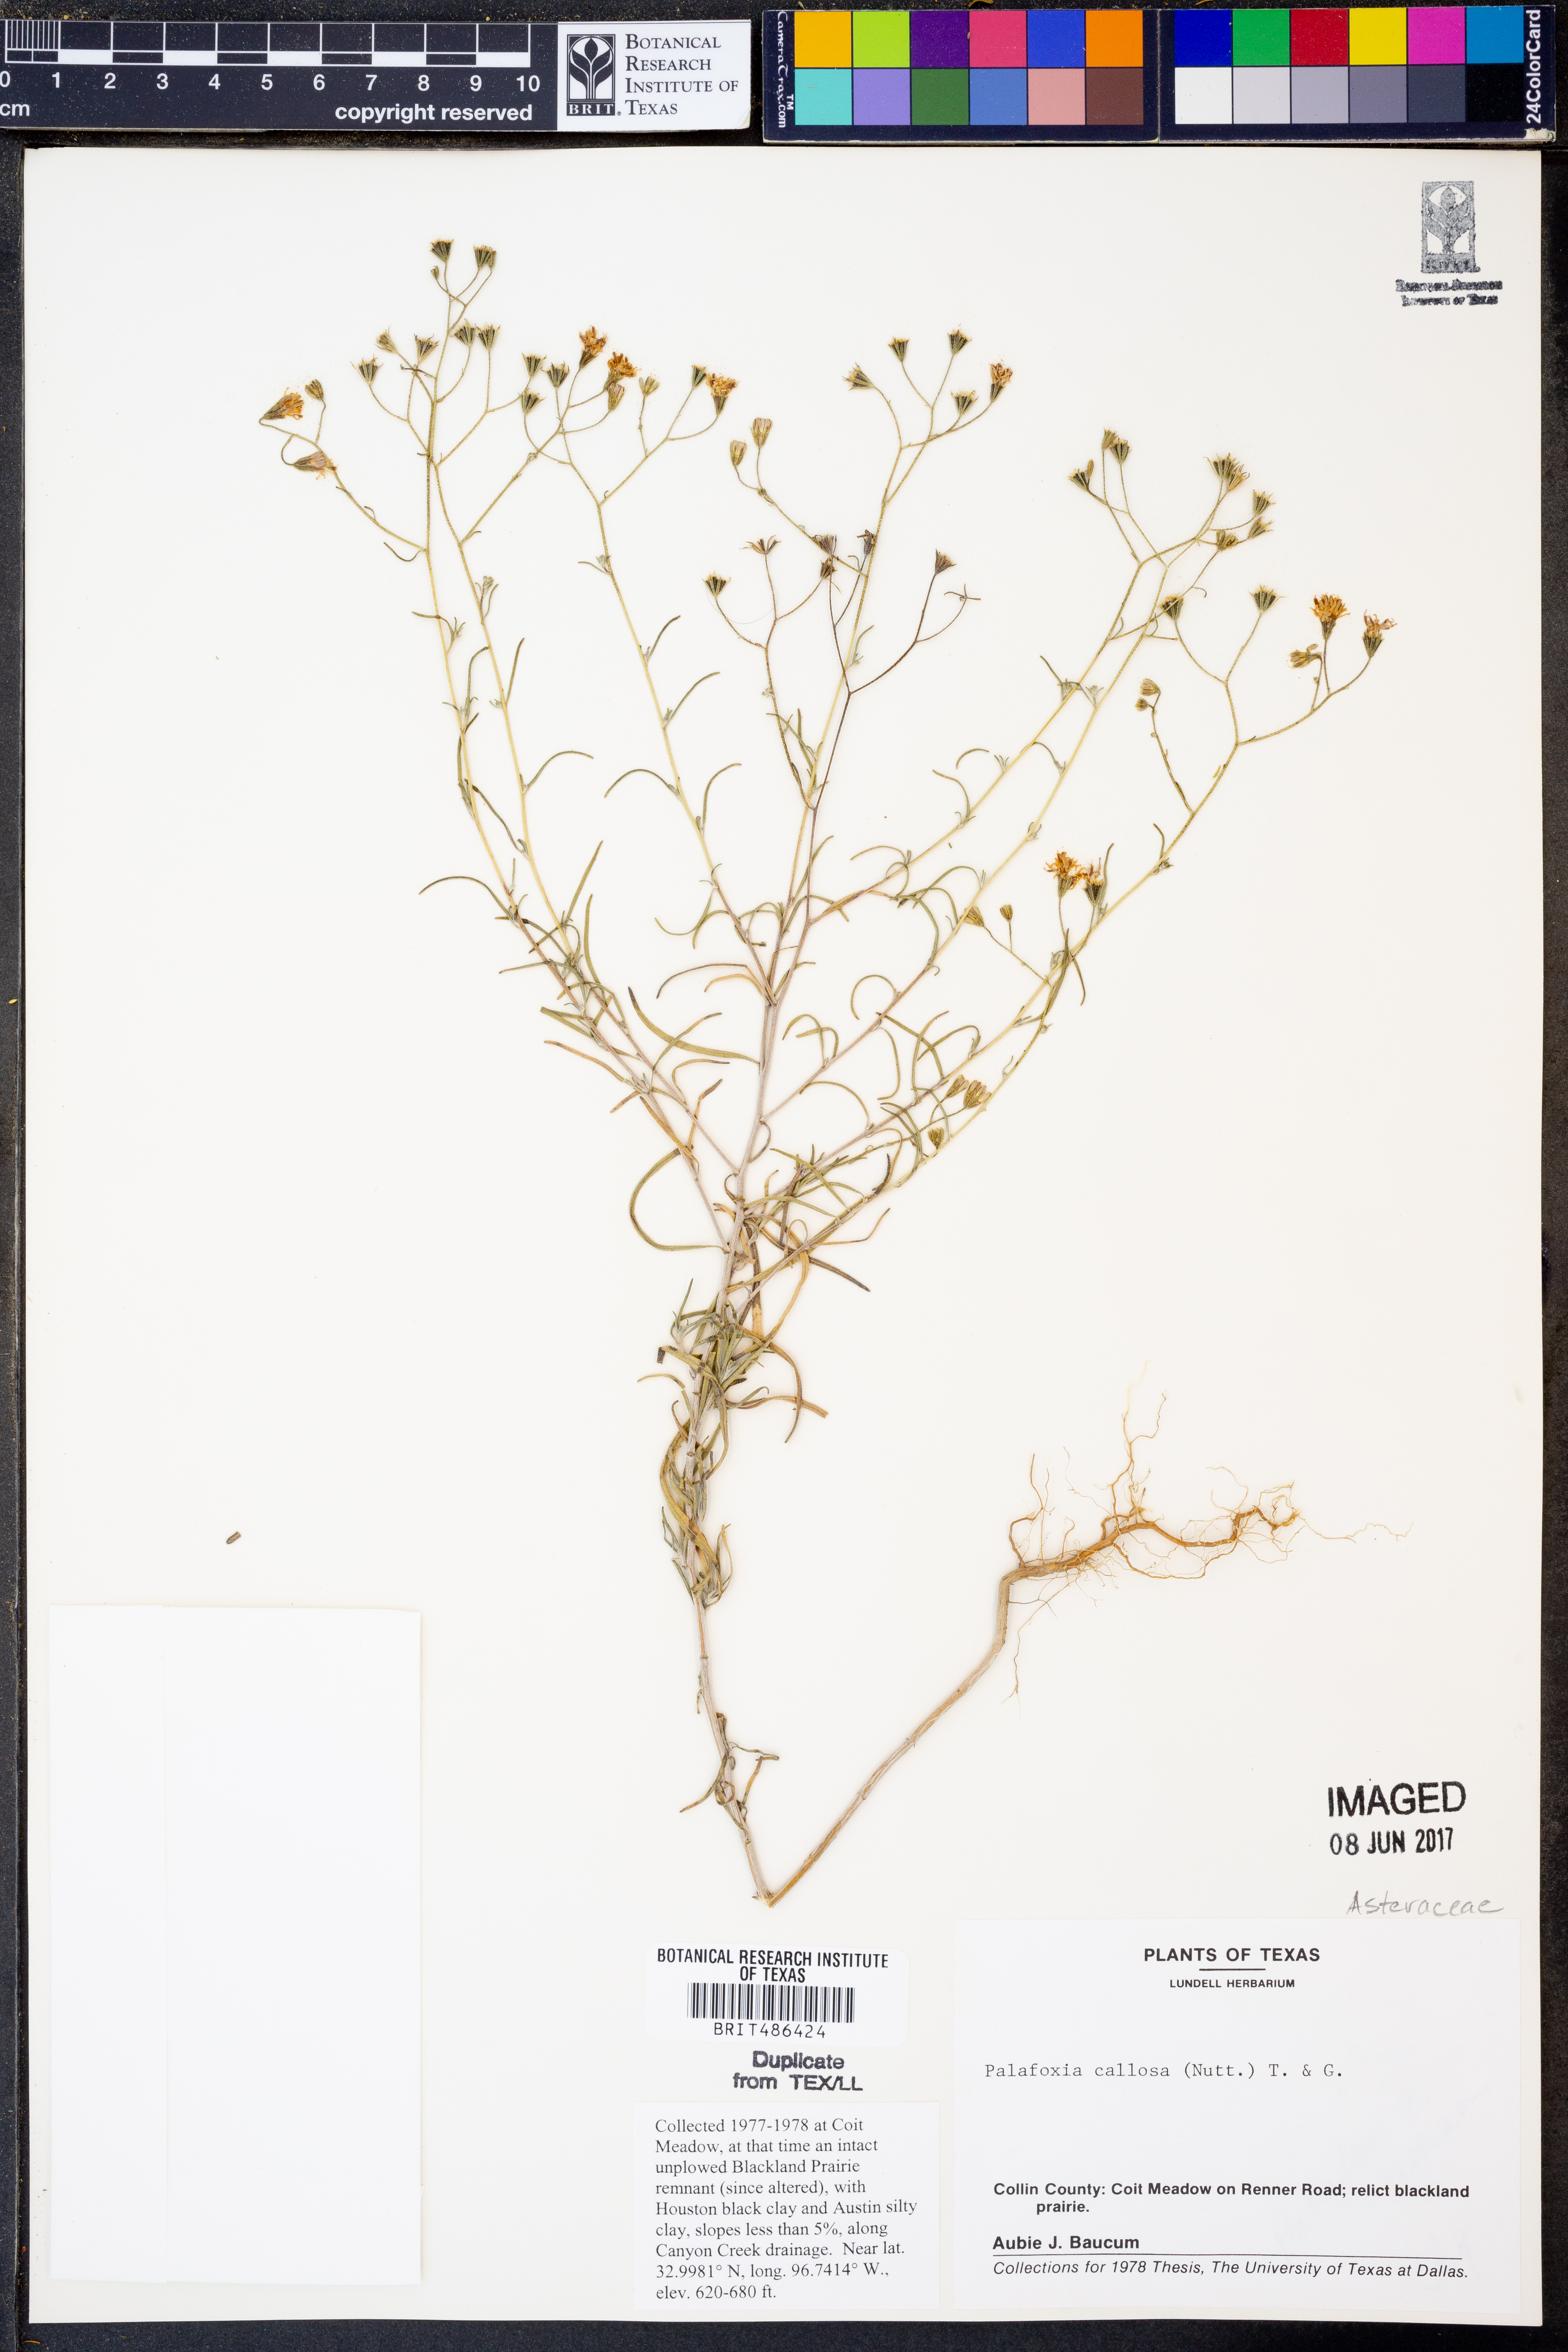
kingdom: Plantae
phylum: Tracheophyta
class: Magnoliopsida
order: Asterales
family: Asteraceae
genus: Palafoxia
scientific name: Palafoxia callosa
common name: Small palafox
